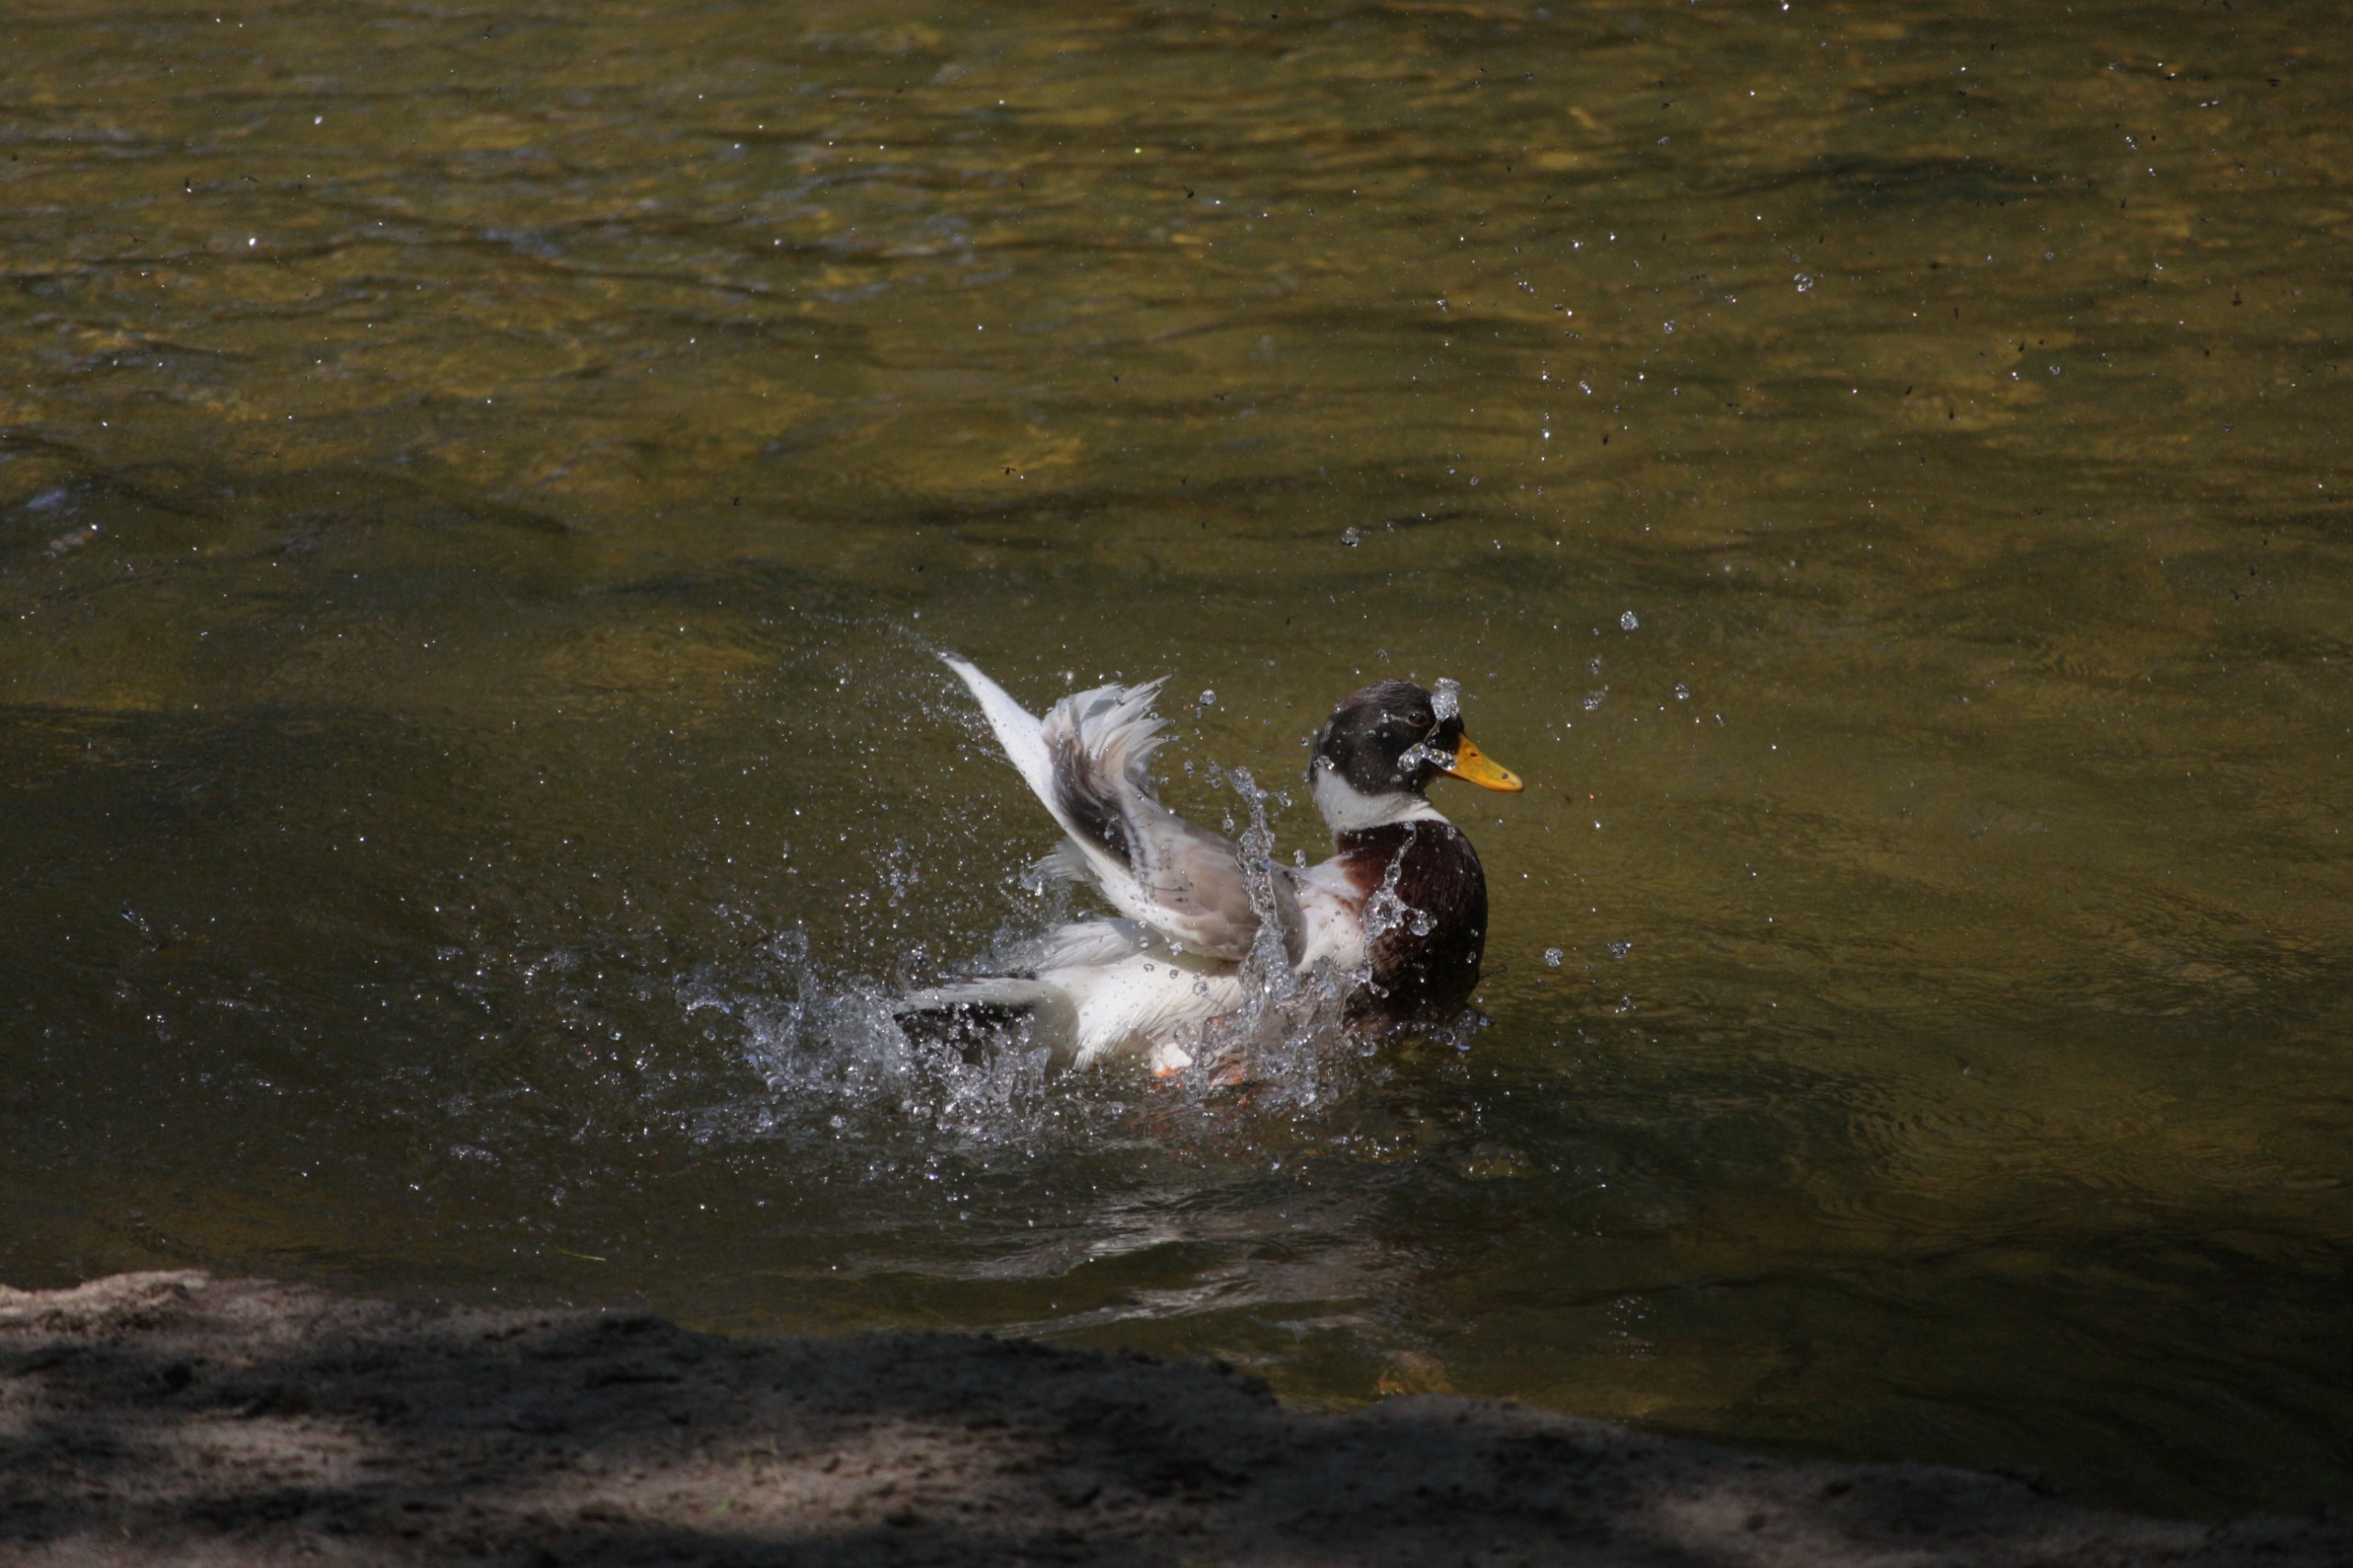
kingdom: Animalia
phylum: Chordata
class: Aves
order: Anseriformes
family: Anatidae
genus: Anas
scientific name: Anas platyrhynchos
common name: Gråand
